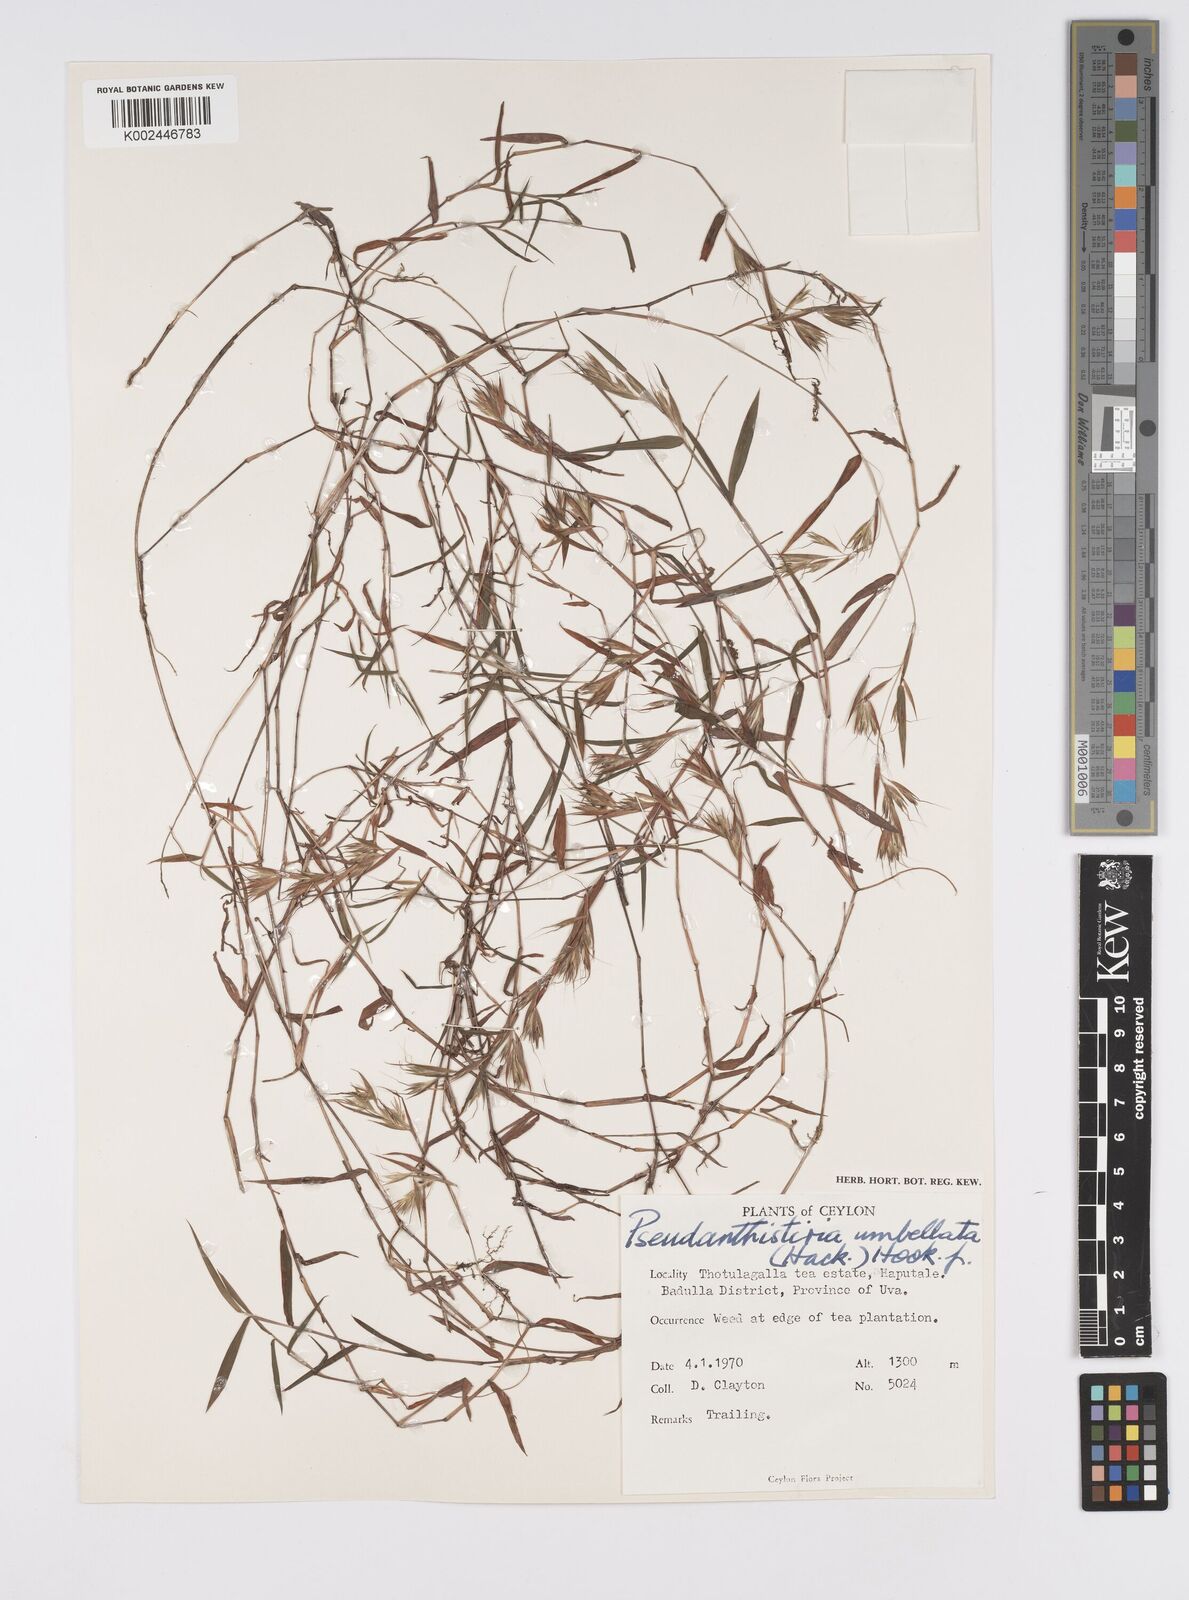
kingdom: Plantae
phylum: Tracheophyta
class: Liliopsida
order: Poales
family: Poaceae
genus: Pseudanthistiria
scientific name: Pseudanthistiria umbellata
